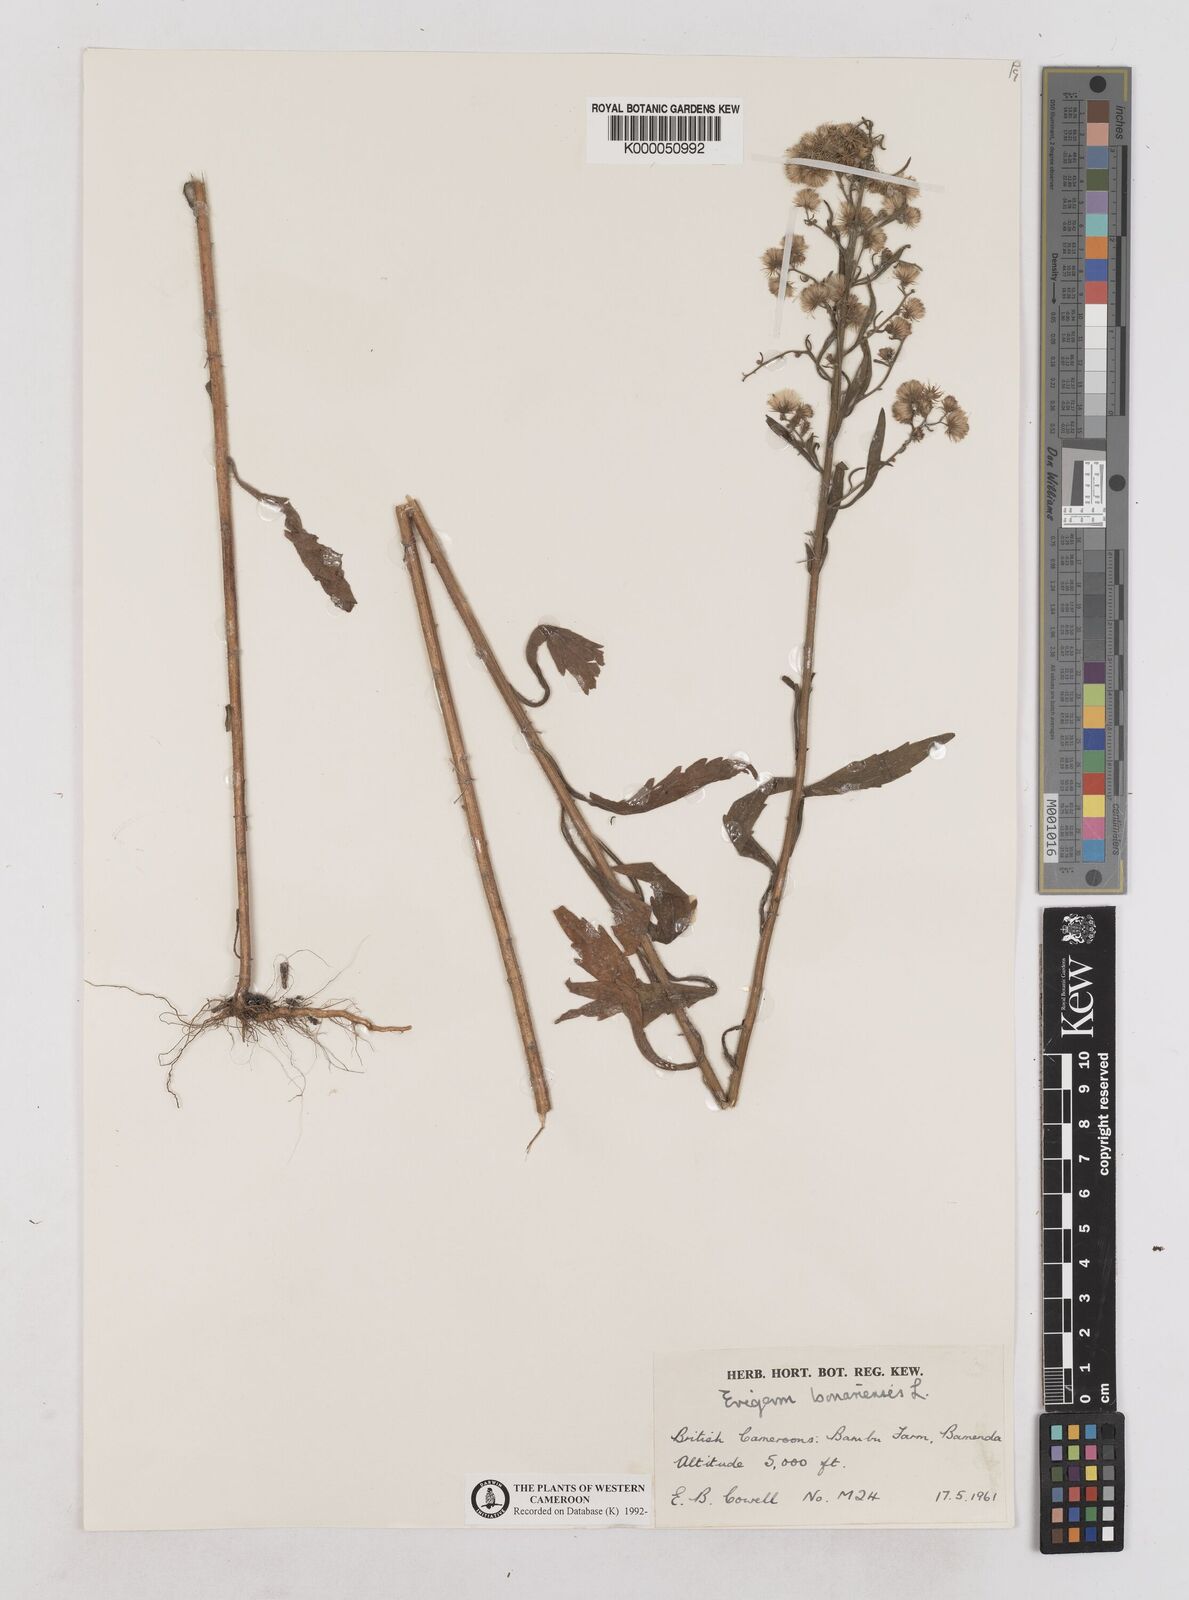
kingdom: Plantae
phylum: Tracheophyta
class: Magnoliopsida
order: Asterales
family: Asteraceae
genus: Erigeron
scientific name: Erigeron bonariensis
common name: Argentine fleabane
